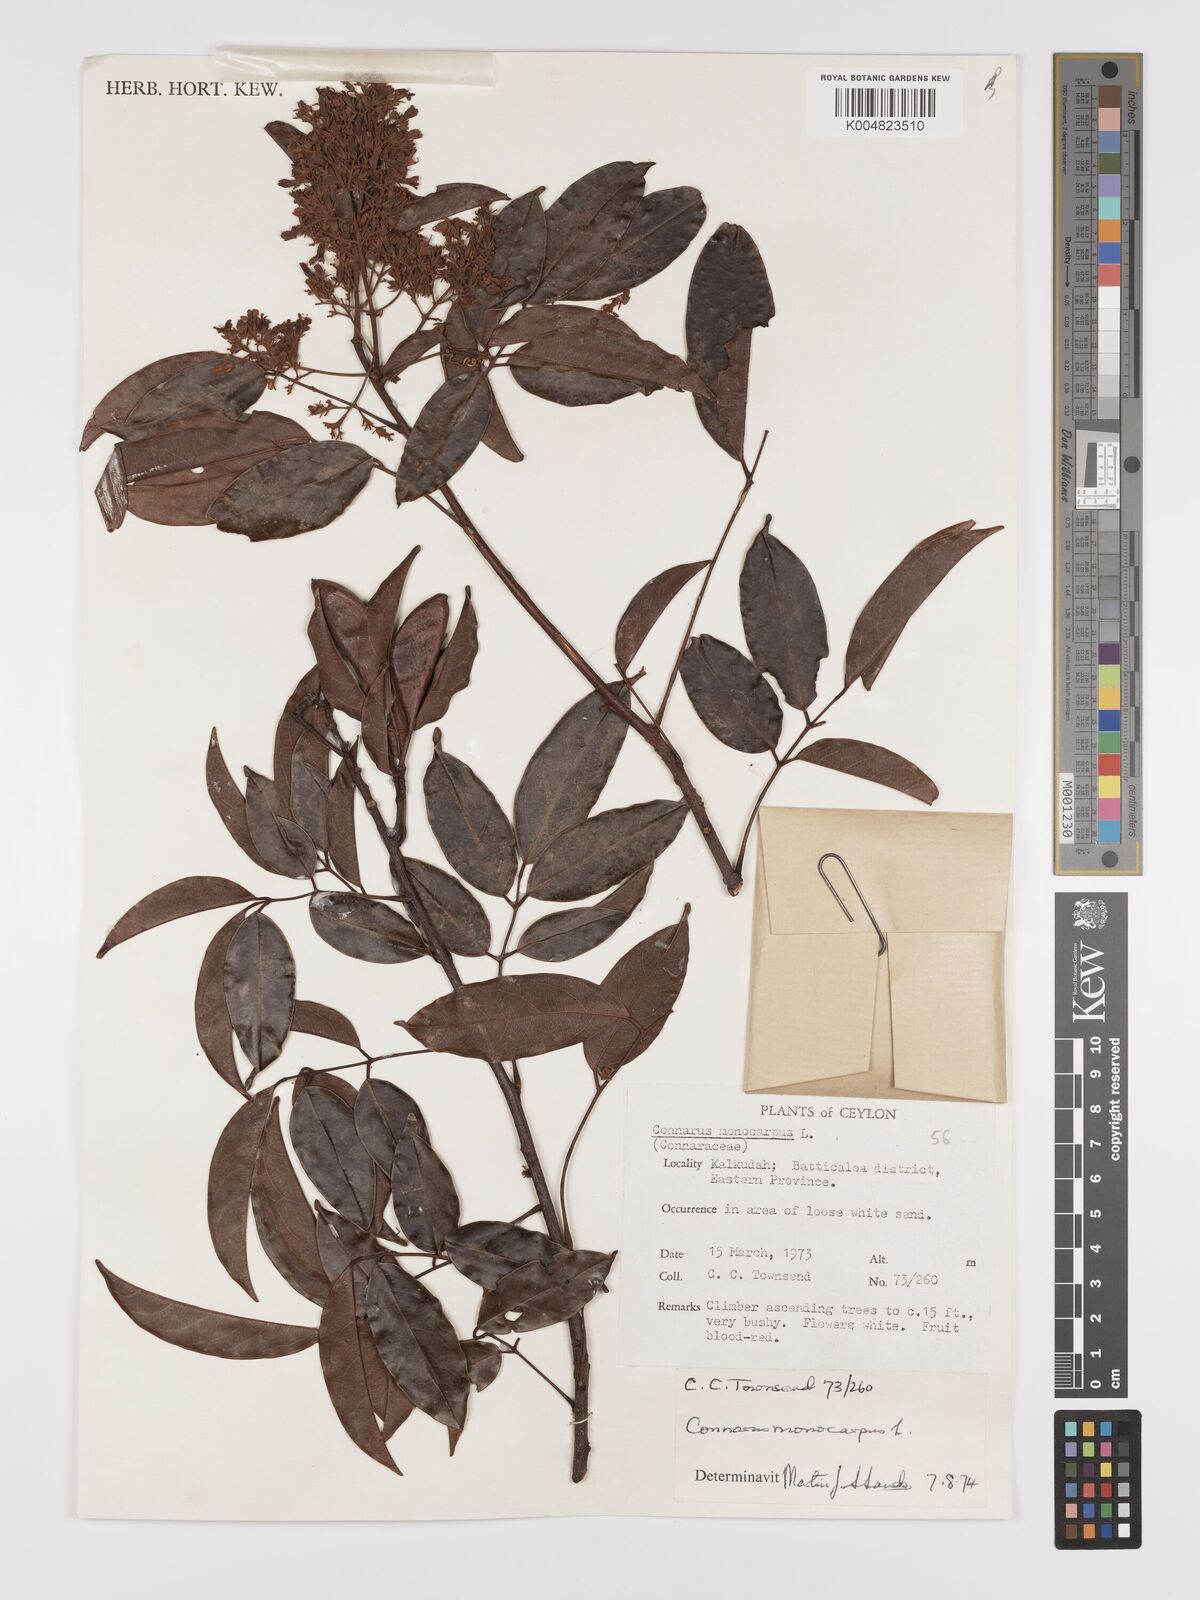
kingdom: Plantae
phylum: Tracheophyta
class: Magnoliopsida
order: Oxalidales
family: Connaraceae
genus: Connarus
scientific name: Connarus semidecandrus
